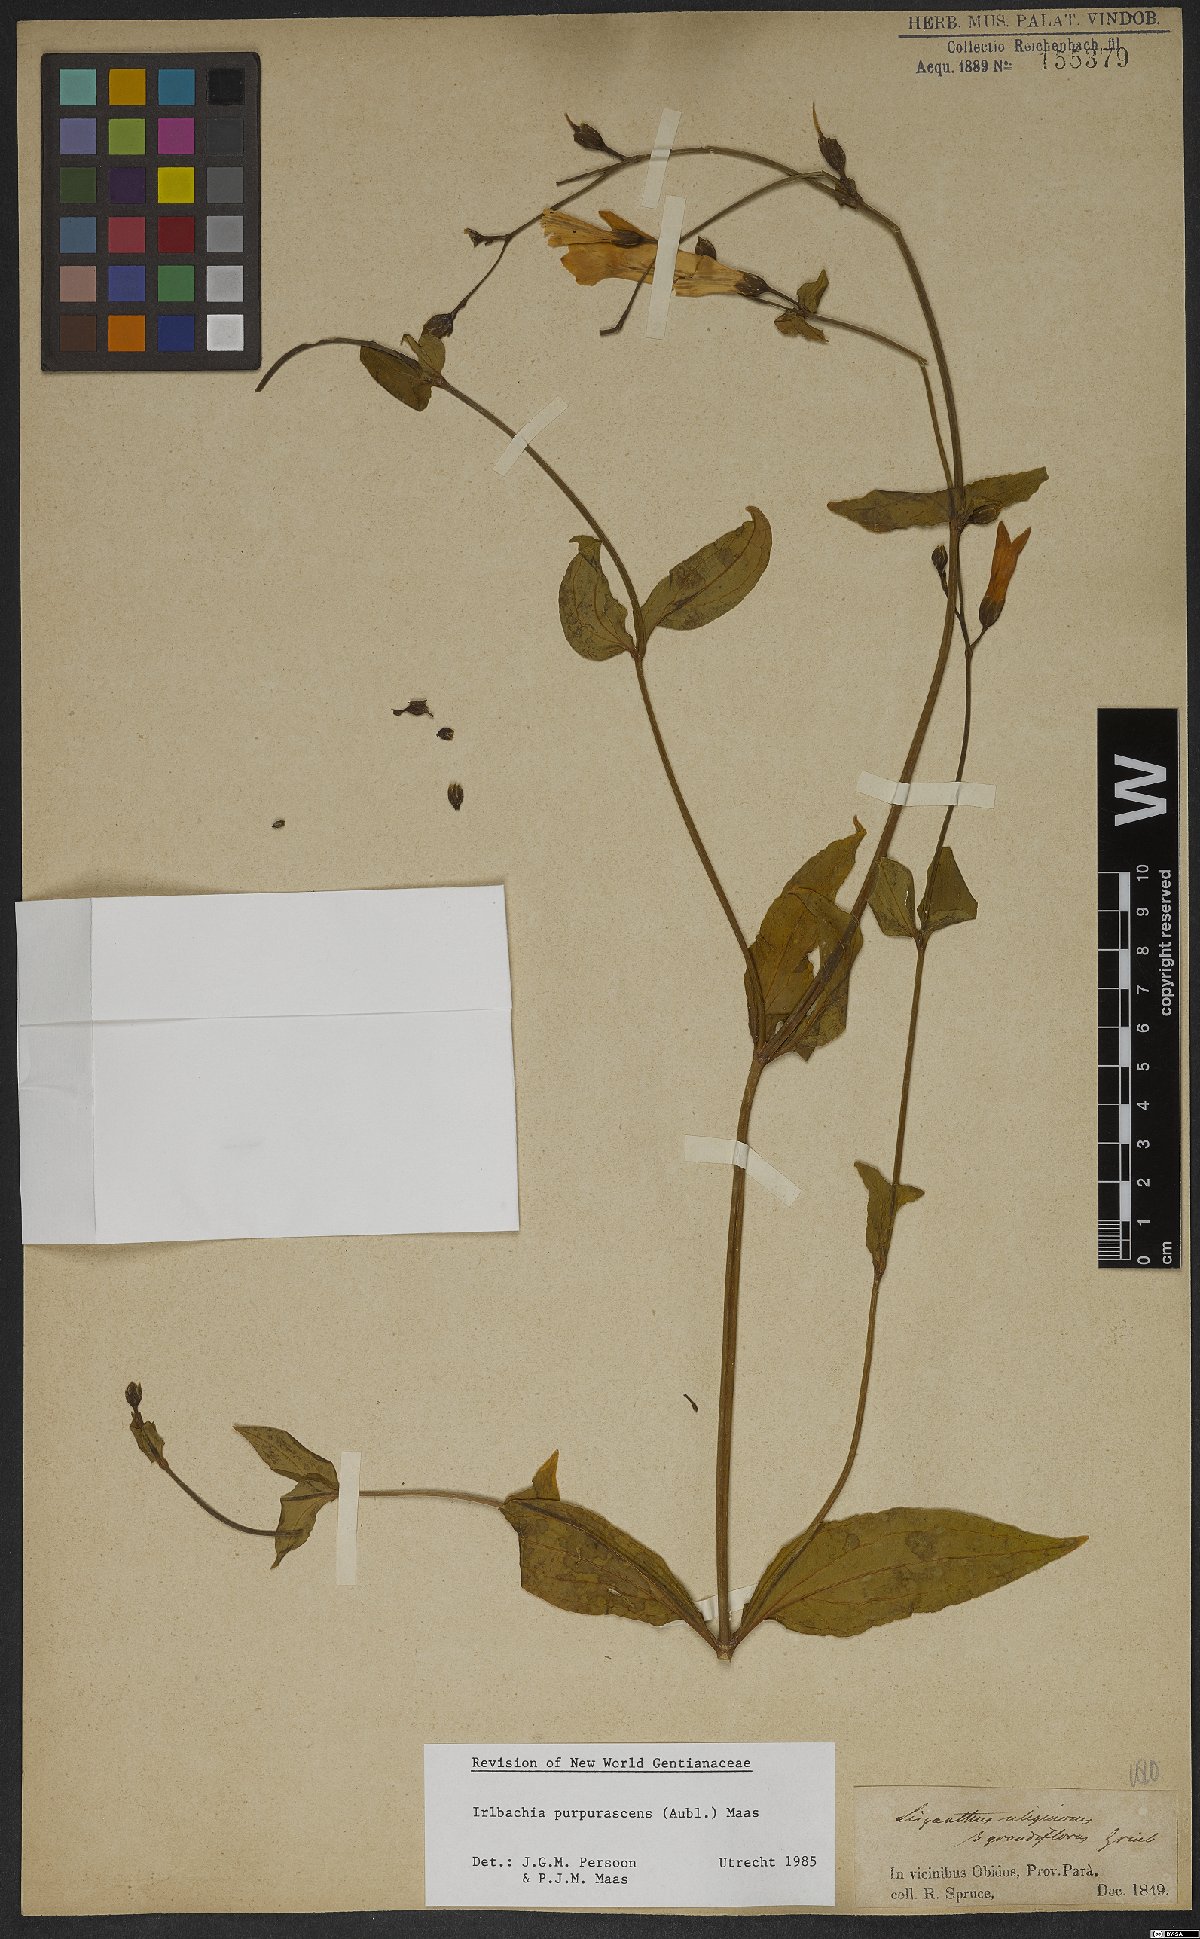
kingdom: Plantae
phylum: Tracheophyta
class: Magnoliopsida
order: Gentianales
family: Gentianaceae
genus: Chelonanthus
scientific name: Chelonanthus purpurascens
